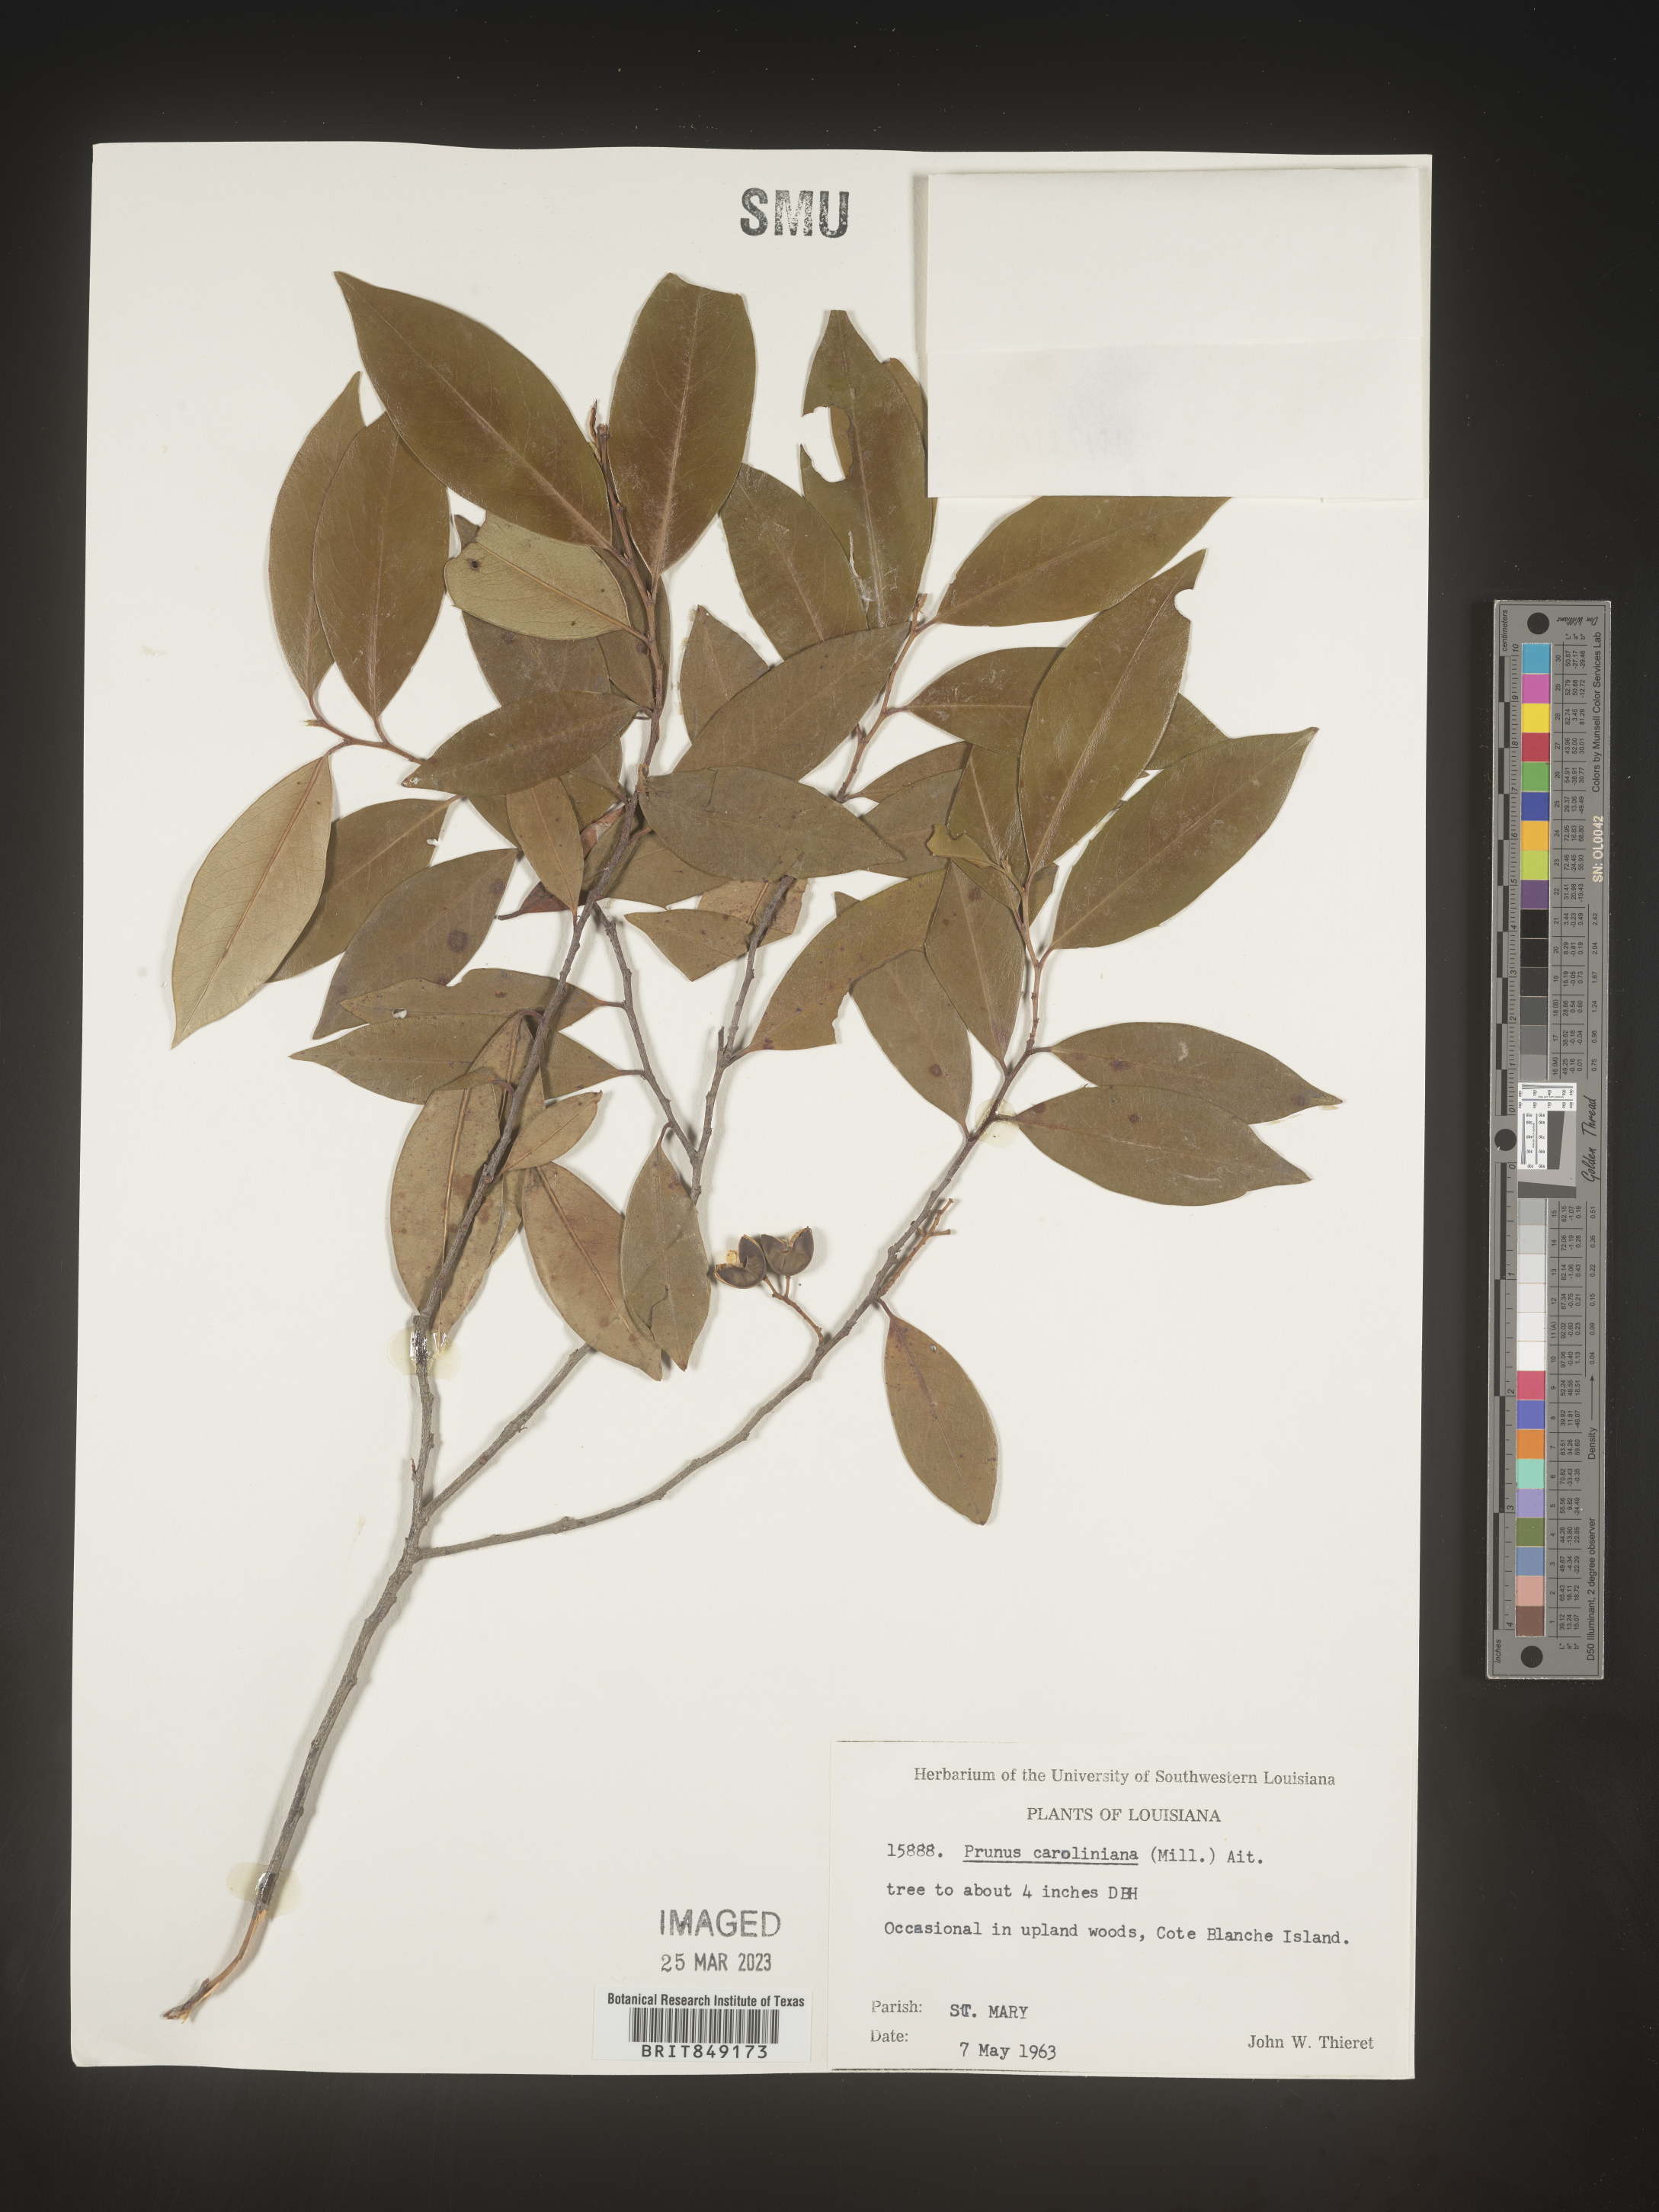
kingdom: Plantae
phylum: Tracheophyta
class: Magnoliopsida
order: Rosales
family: Rosaceae
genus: Prunus
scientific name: Prunus caroliniana
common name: Carolina laurel cherry
